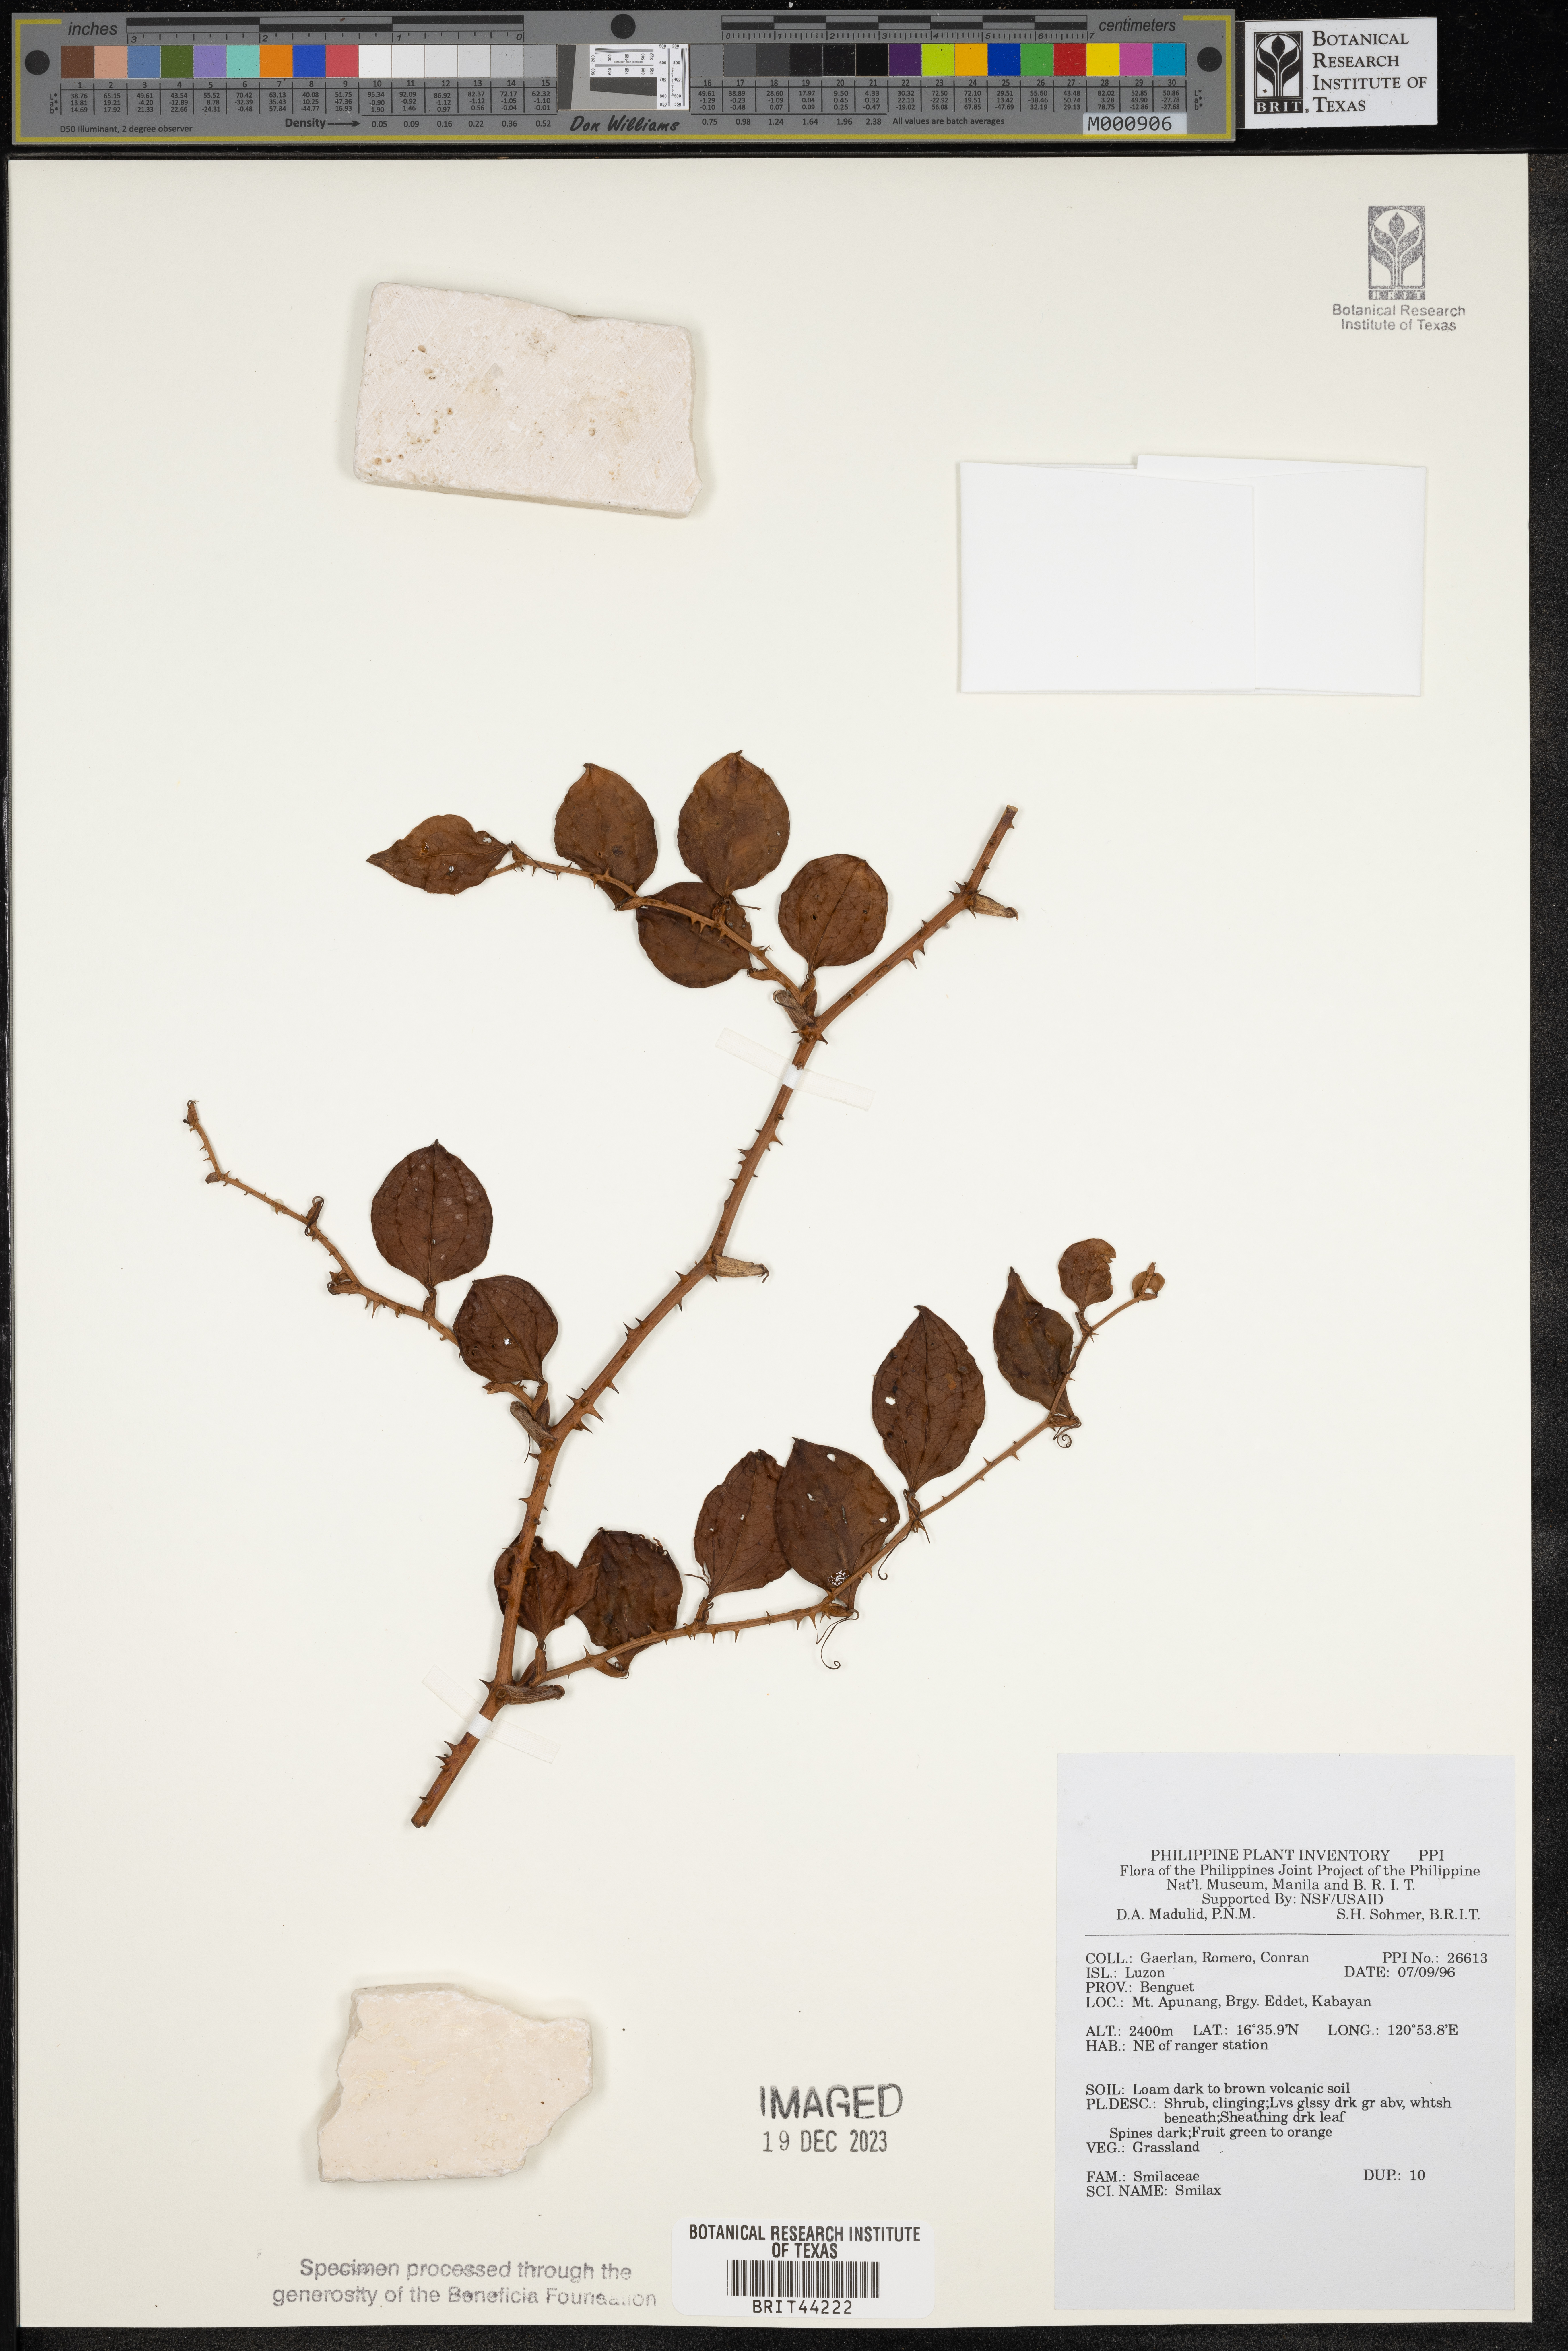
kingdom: Plantae
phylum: Tracheophyta
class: Liliopsida
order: Liliales
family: Smilacaceae
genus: Smilax
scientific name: Smilax
